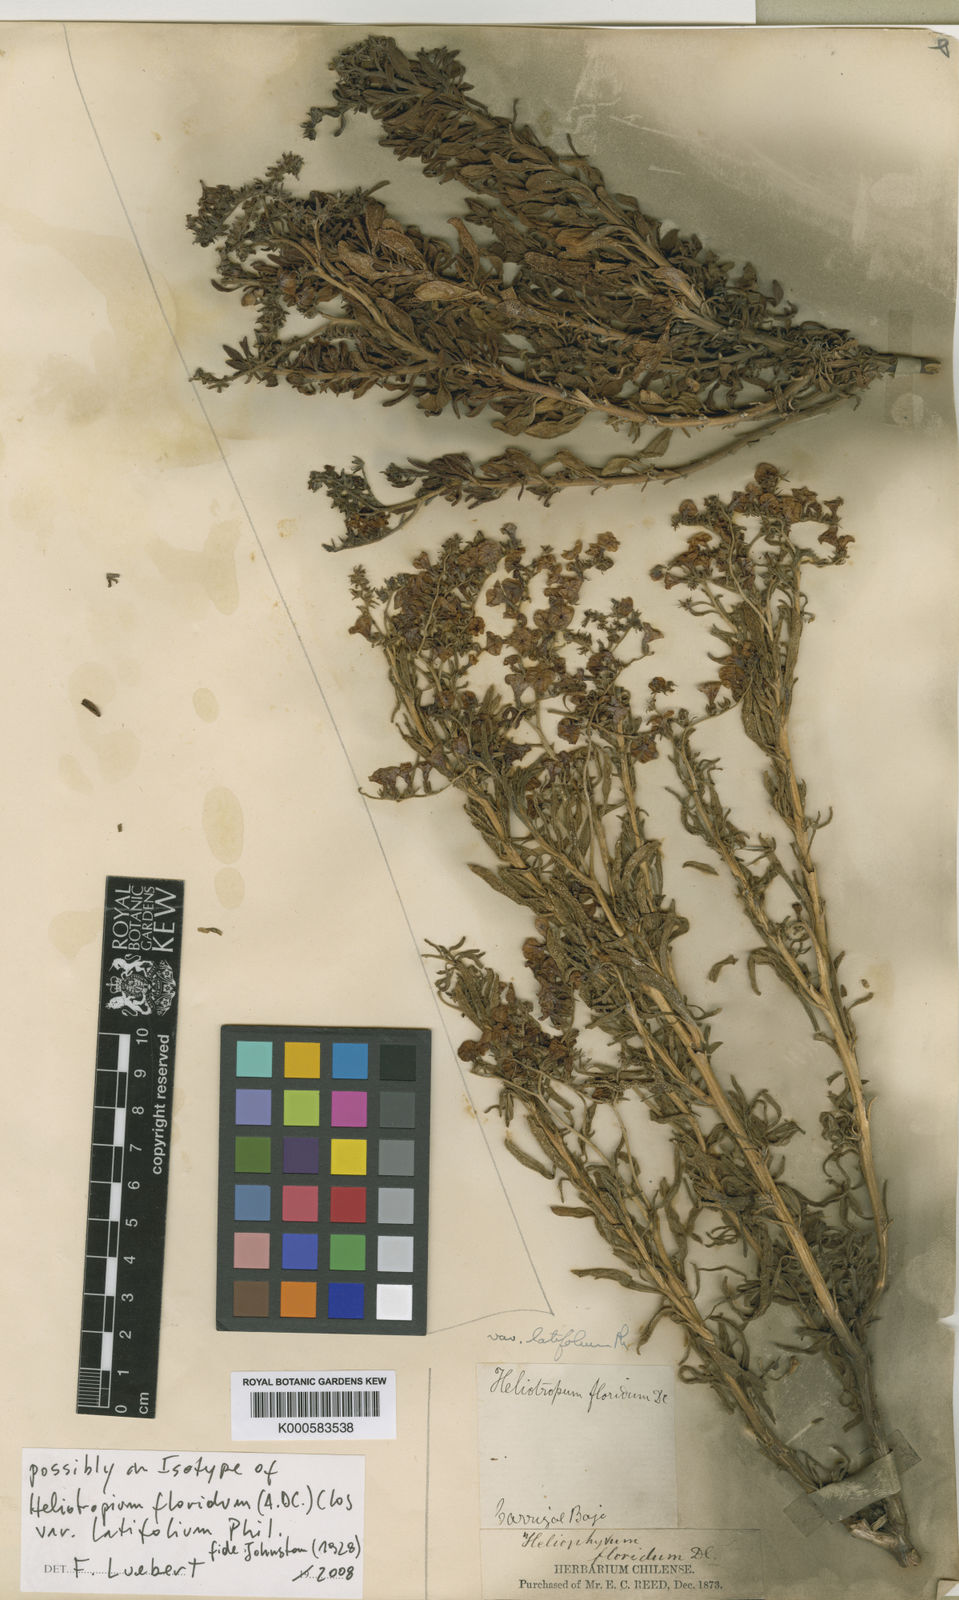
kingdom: Plantae
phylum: Tracheophyta
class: Magnoliopsida
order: Boraginales
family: Heliotropiaceae
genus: Heliotropium
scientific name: Heliotropium floridum
